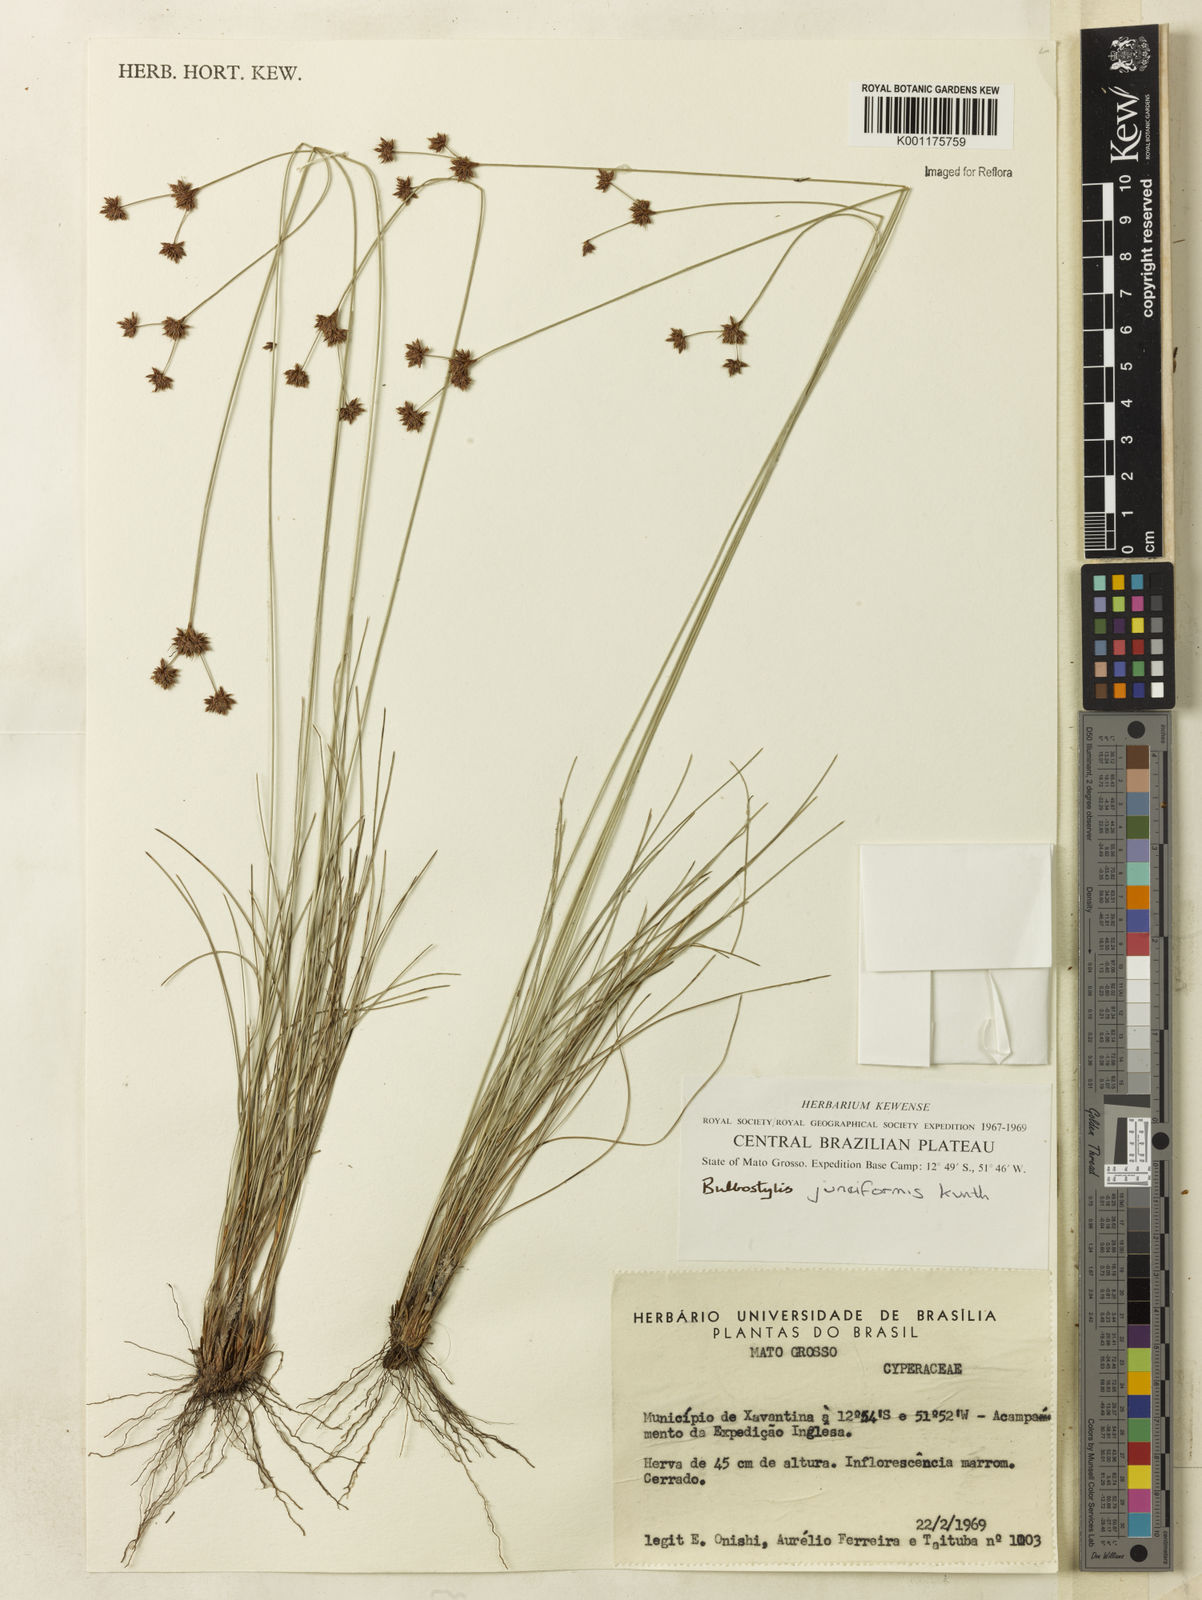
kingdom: Plantae
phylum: Tracheophyta
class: Liliopsida
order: Poales
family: Cyperaceae
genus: Bulbostylis
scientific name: Bulbostylis junciformis
